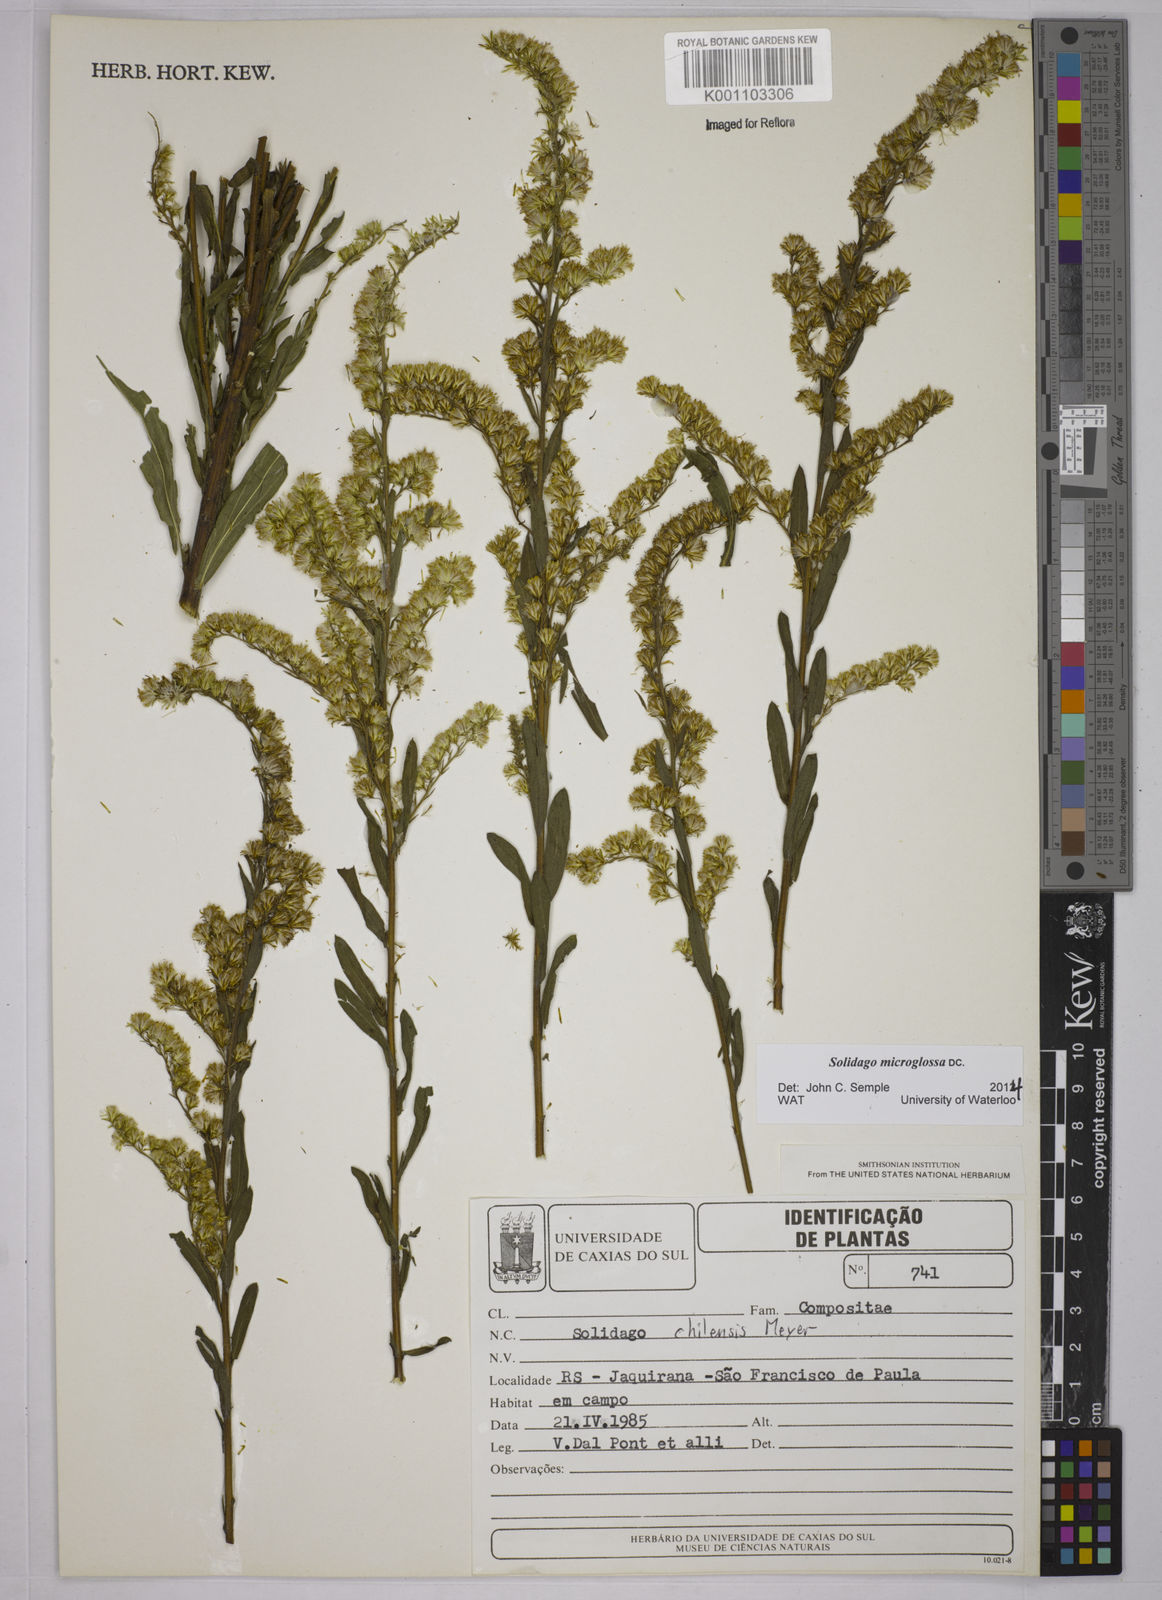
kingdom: Plantae
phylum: Tracheophyta
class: Magnoliopsida
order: Asterales
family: Asteraceae
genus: Solidago
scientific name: Solidago chilensis
